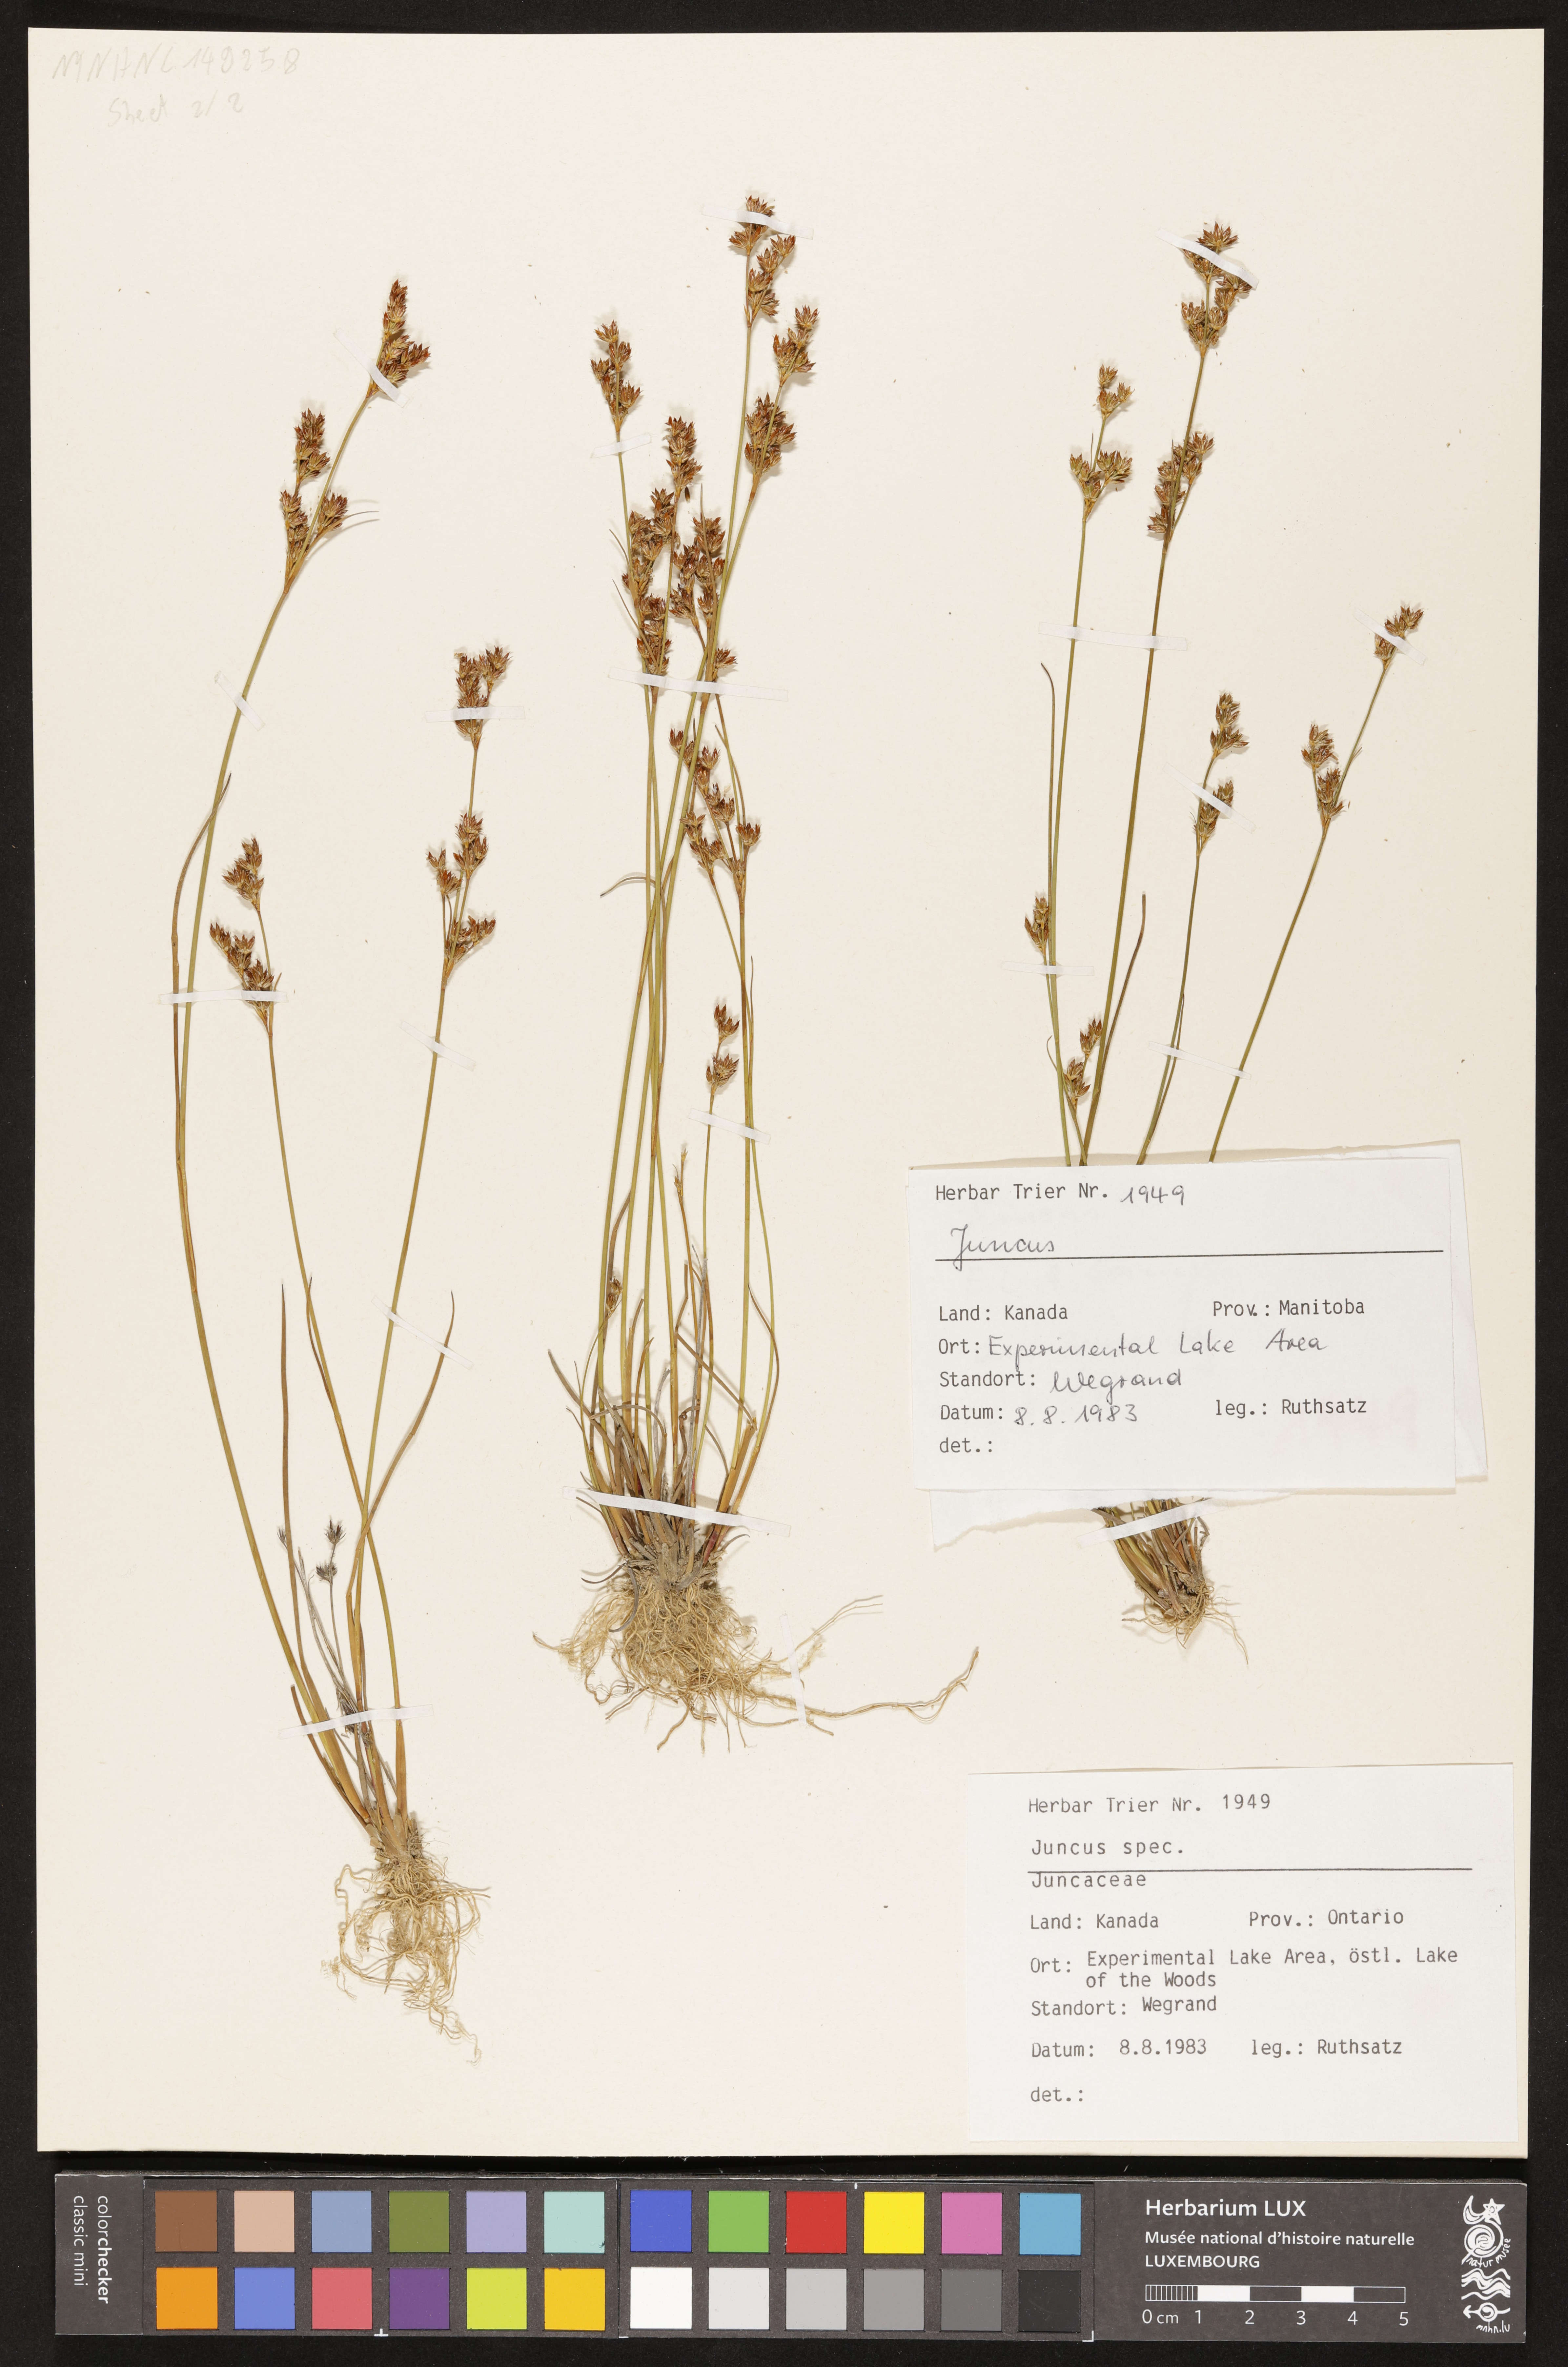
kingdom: Plantae
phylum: Tracheophyta
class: Liliopsida
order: Poales
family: Juncaceae
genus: Juncus
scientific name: Juncus
